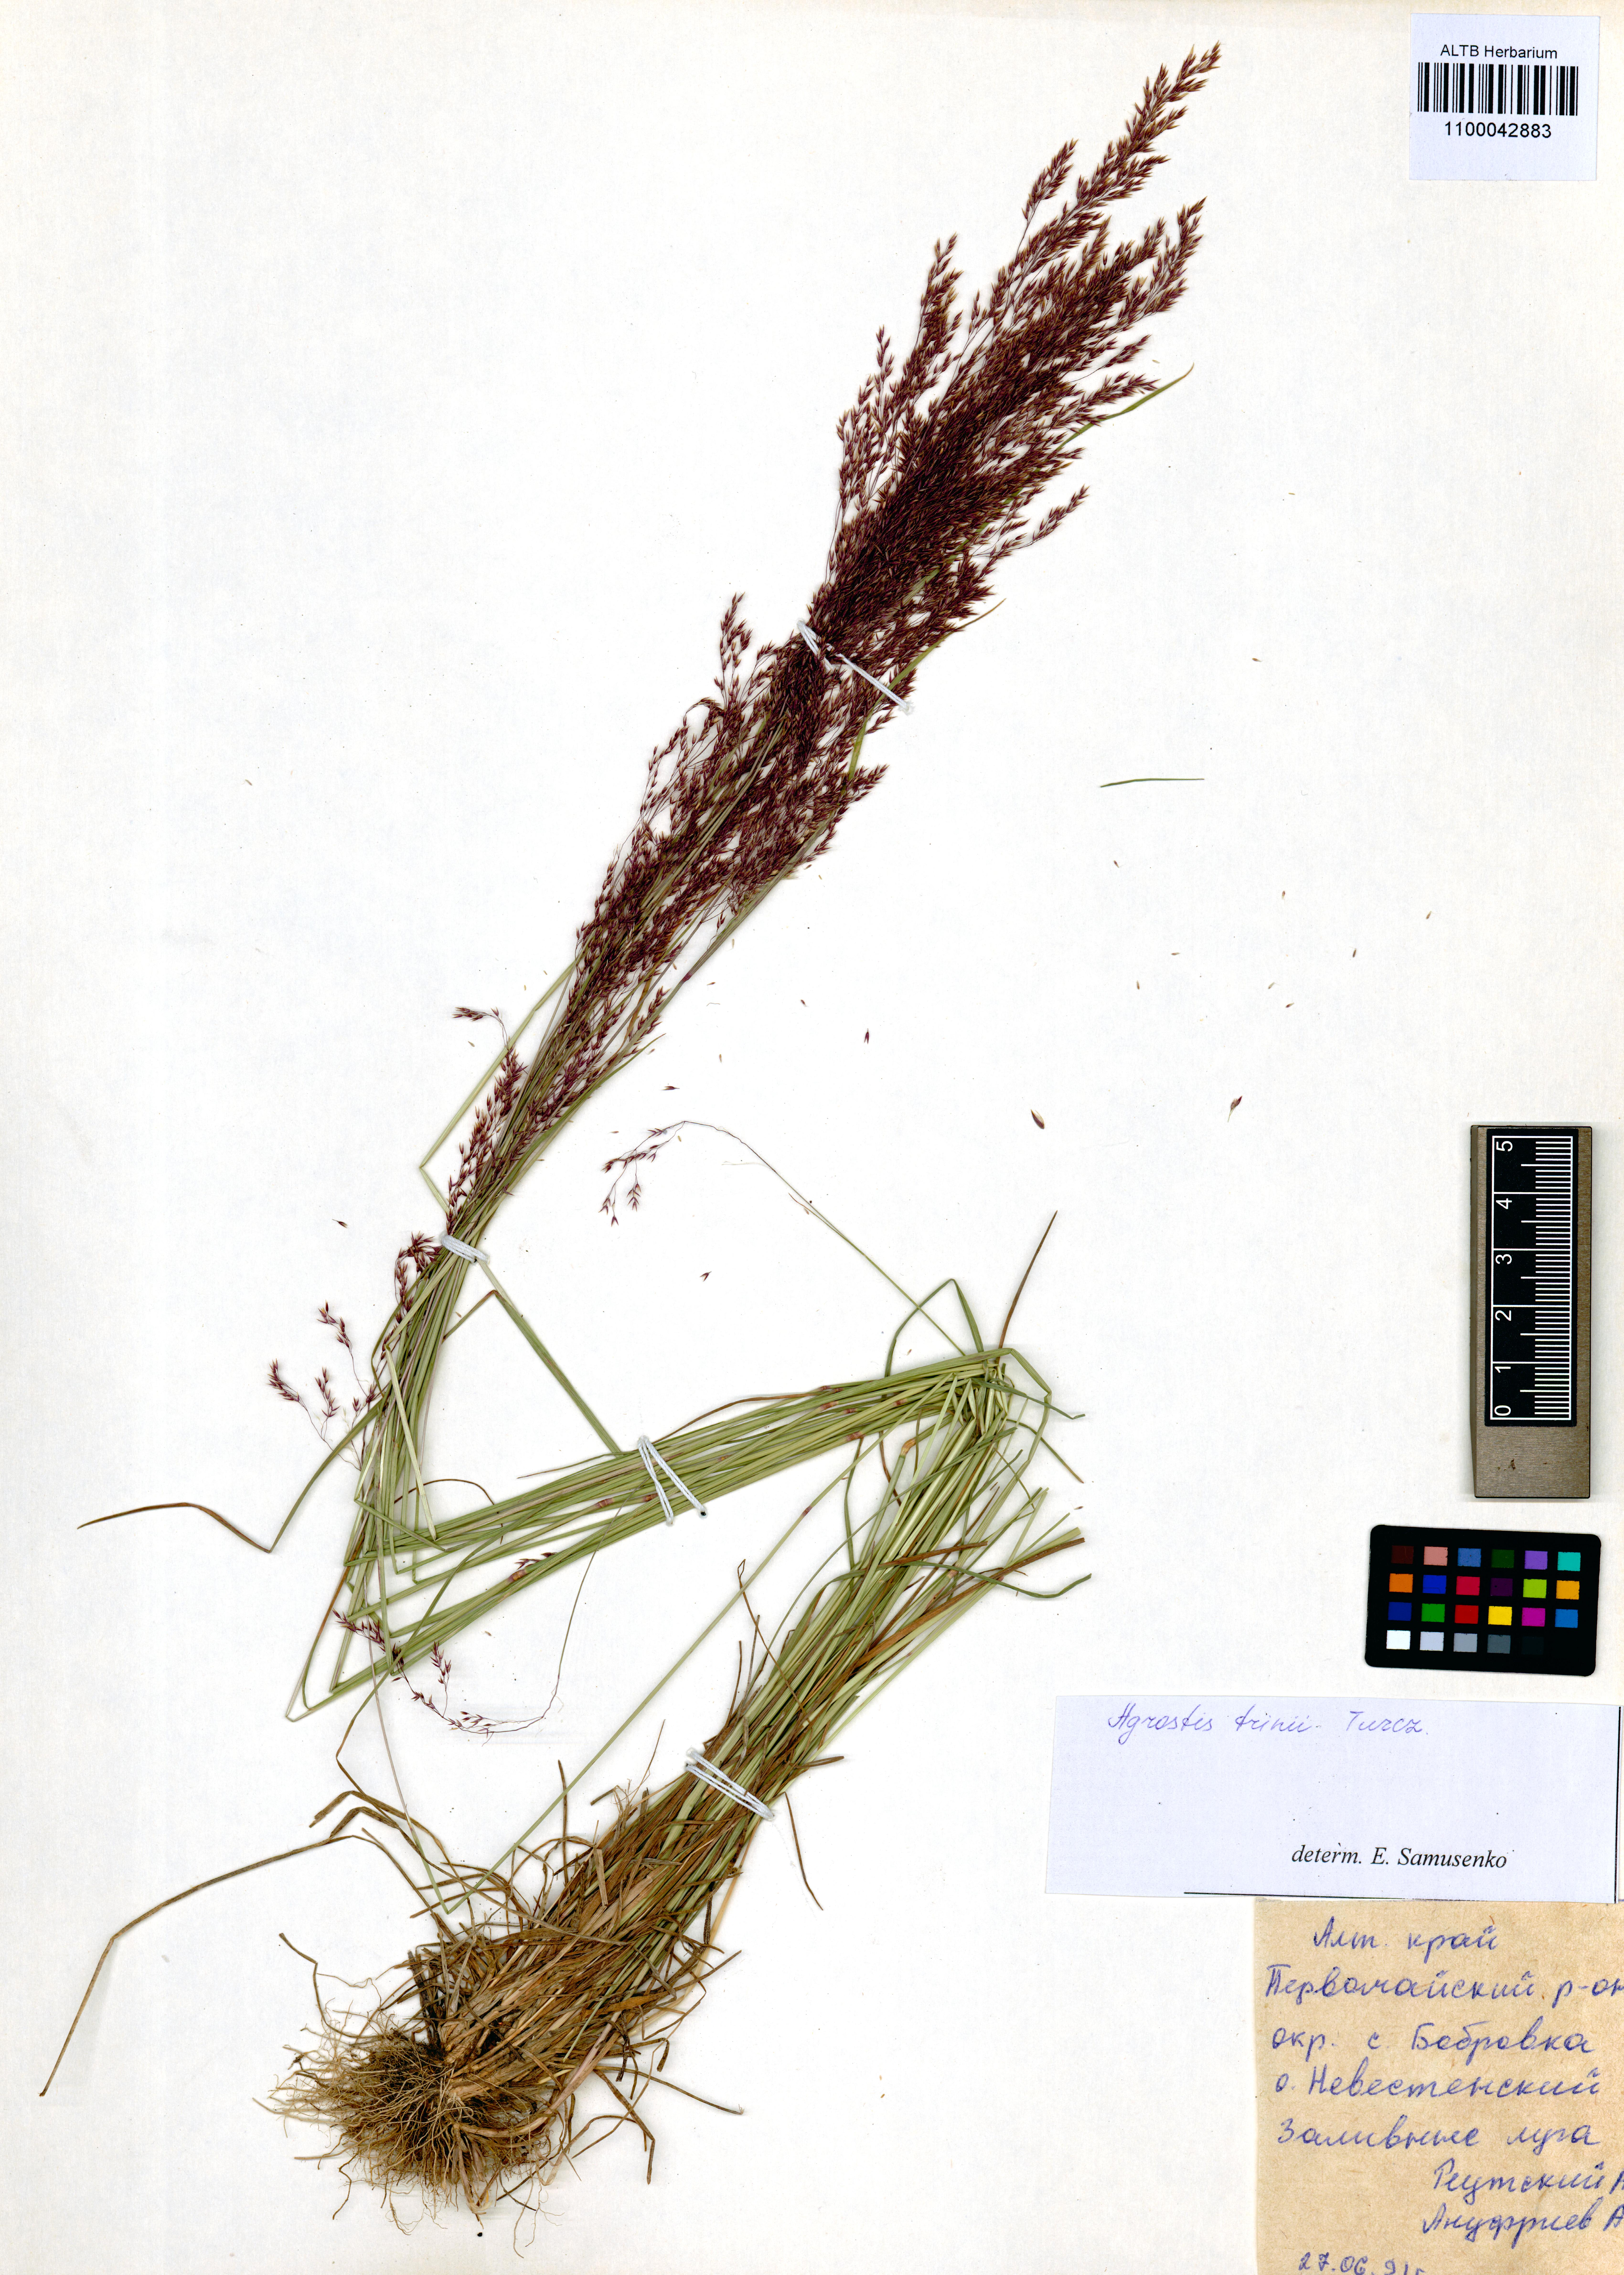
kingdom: Plantae
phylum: Tracheophyta
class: Liliopsida
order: Poales
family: Poaceae
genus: Agrostis
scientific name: Agrostis vinealis
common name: Brown bent
